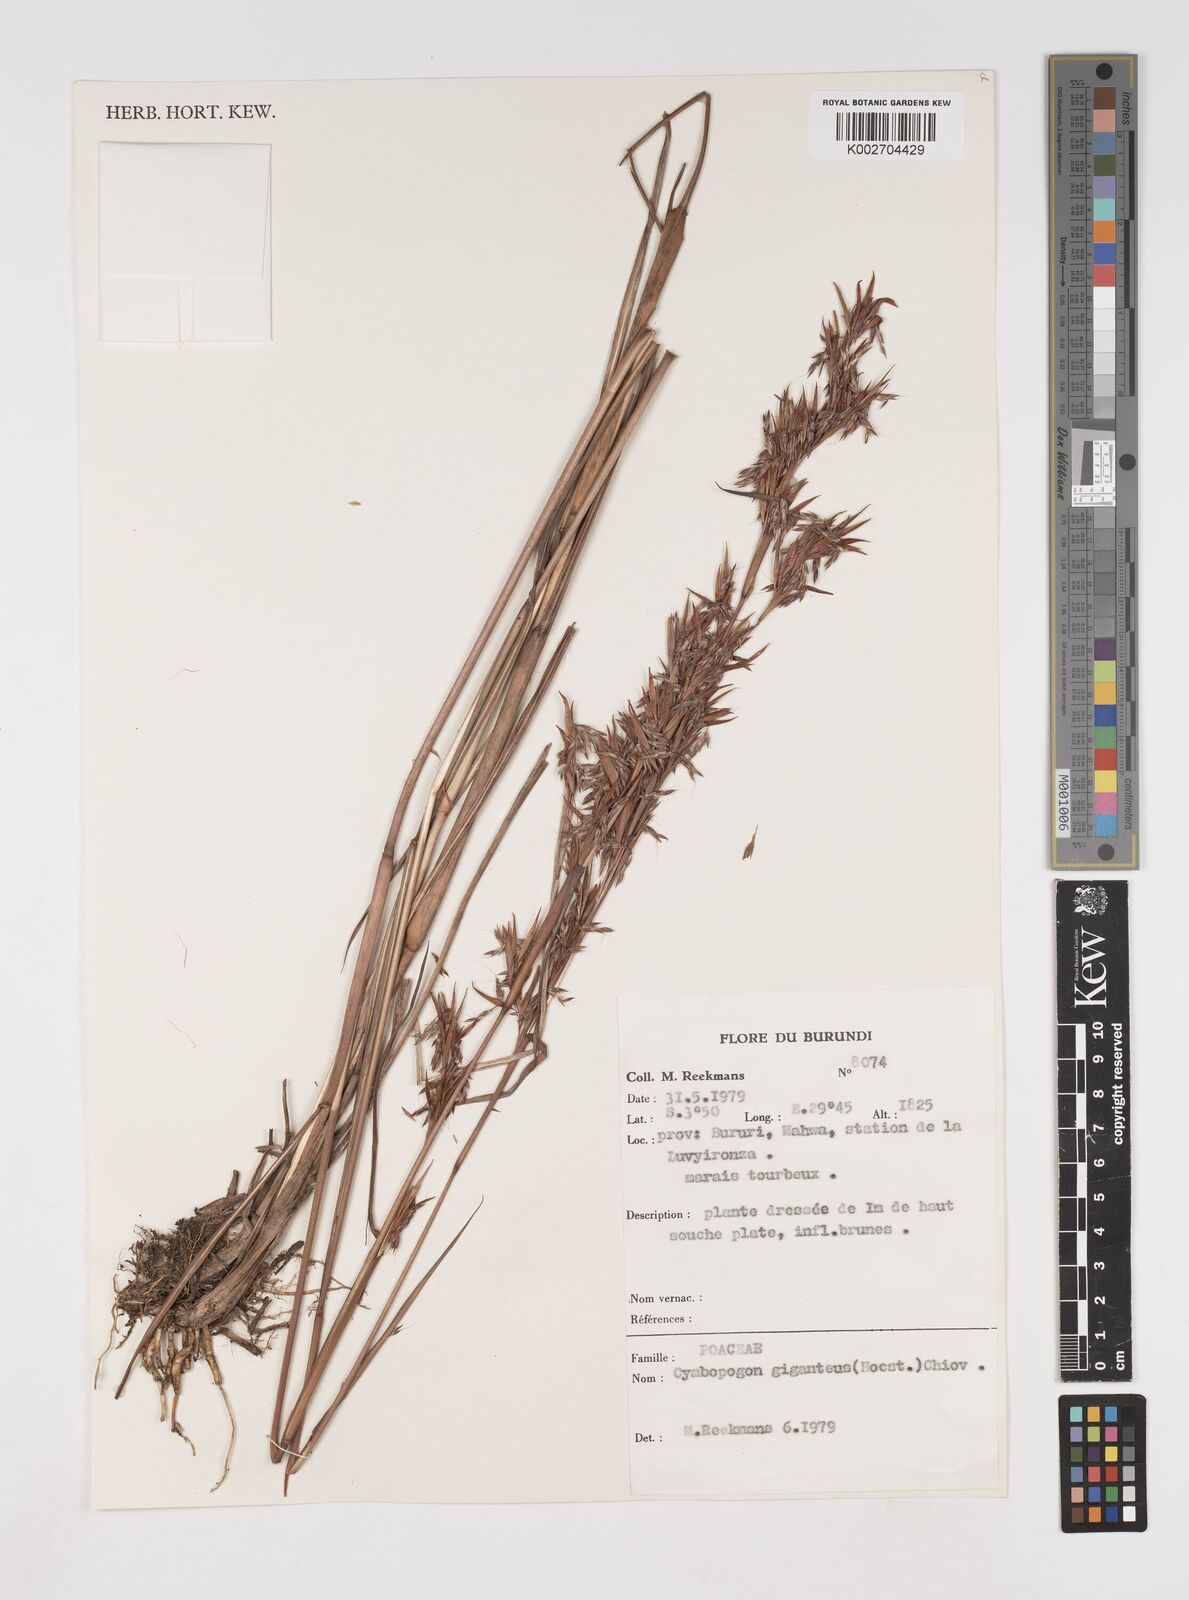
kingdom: Plantae
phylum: Tracheophyta
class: Liliopsida
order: Poales
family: Poaceae
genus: Cymbopogon
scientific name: Cymbopogon giganteus
